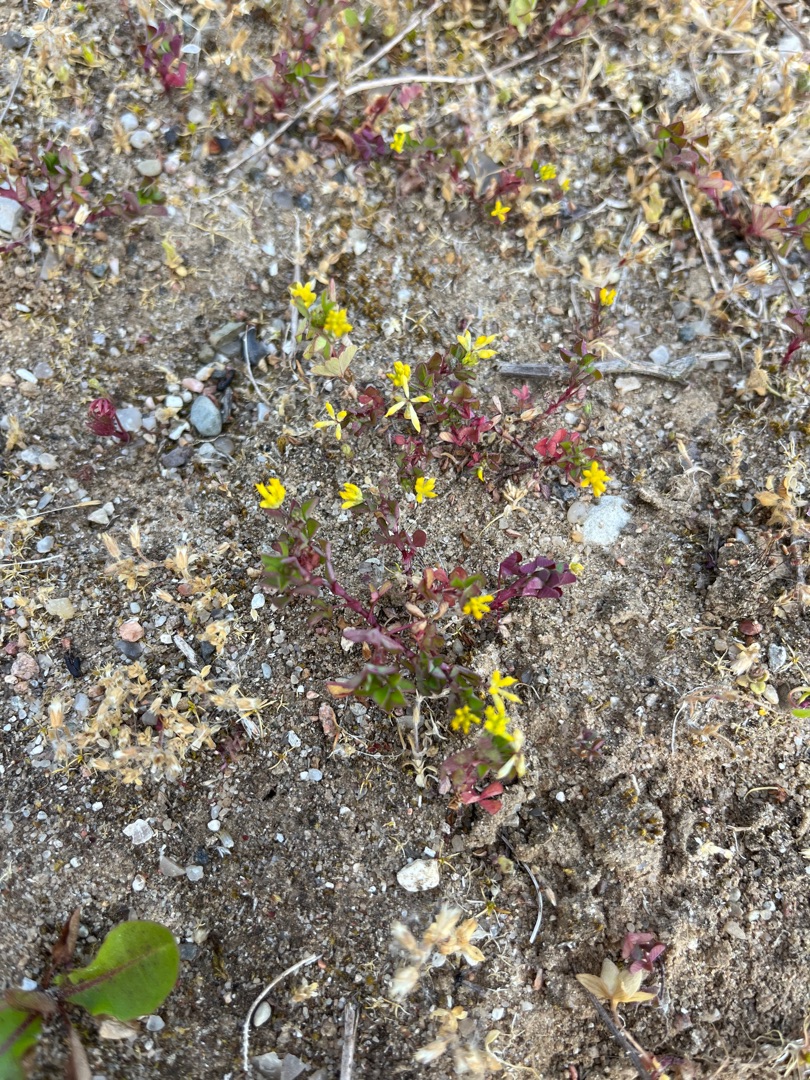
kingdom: Plantae
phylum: Tracheophyta
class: Magnoliopsida
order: Fabales
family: Fabaceae
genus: Trifolium
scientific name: Trifolium dubium
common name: Fin kløver
